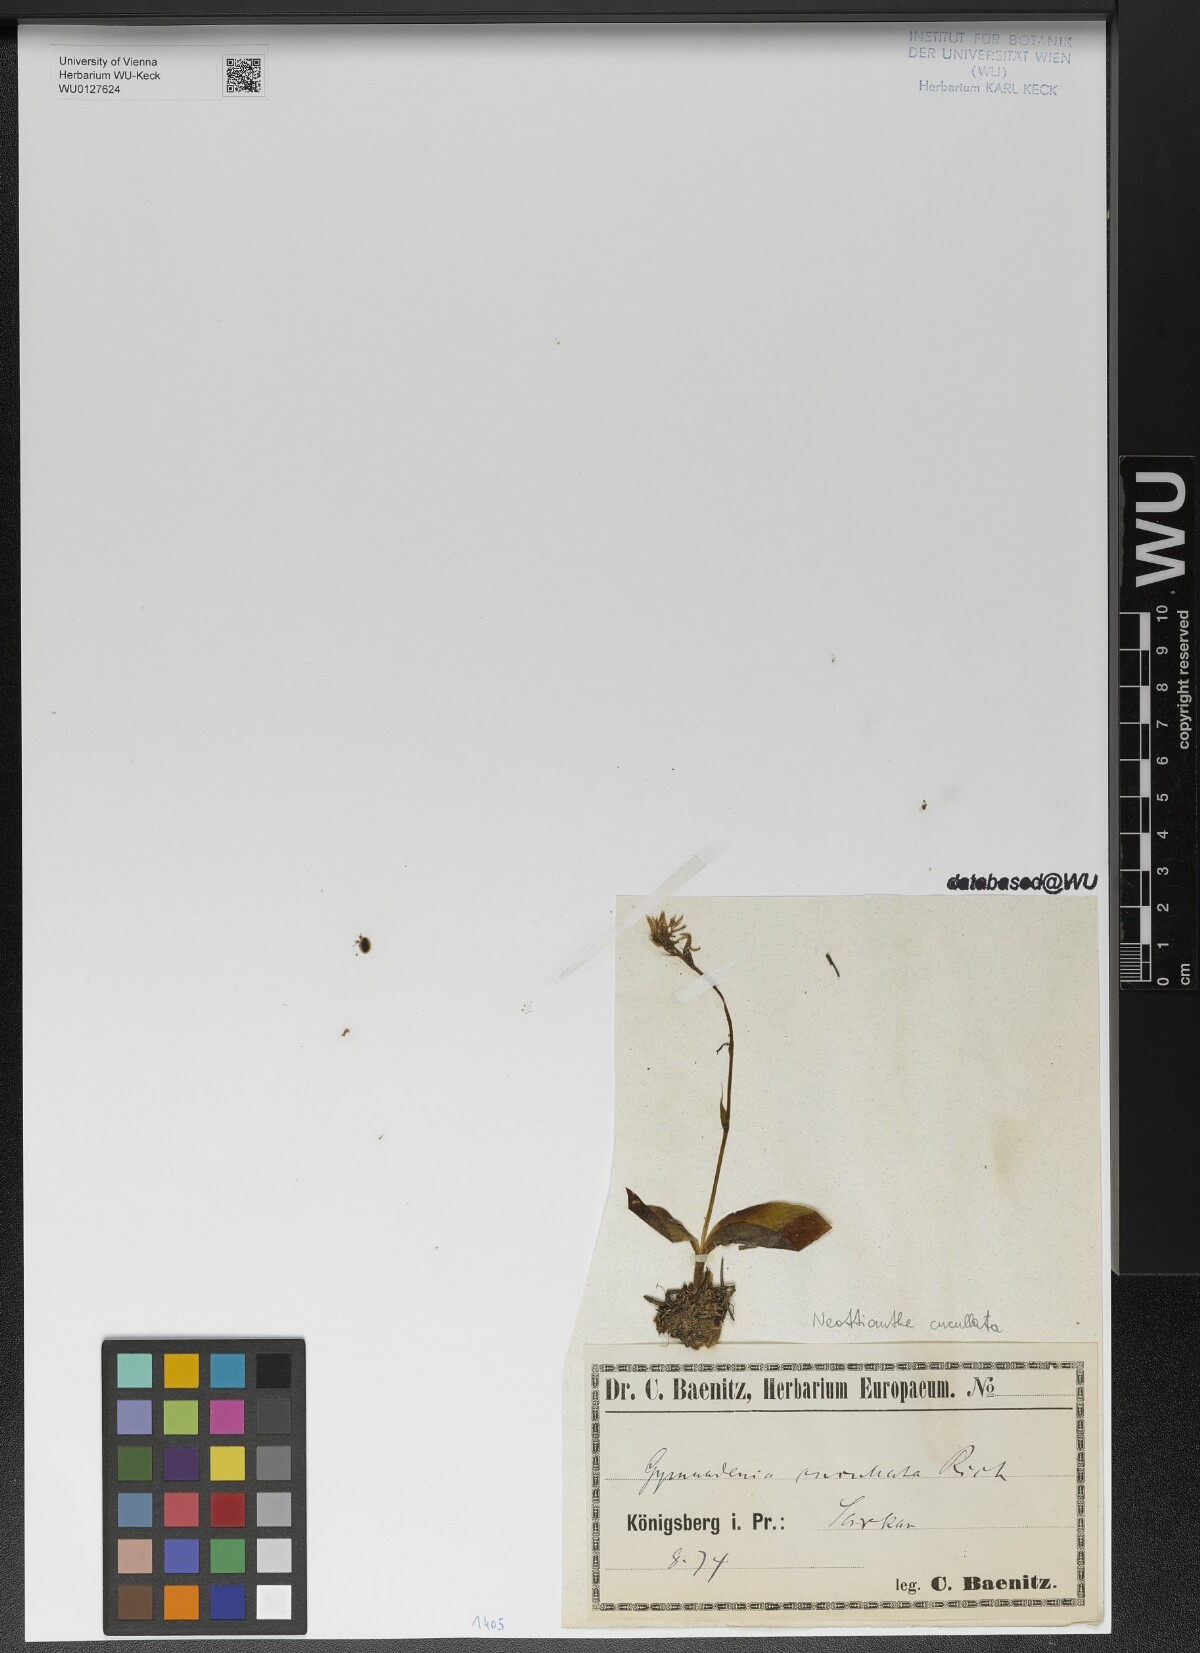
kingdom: Plantae
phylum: Tracheophyta
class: Liliopsida
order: Asparagales
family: Orchidaceae
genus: Hemipilia
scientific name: Hemipilia cucullata
